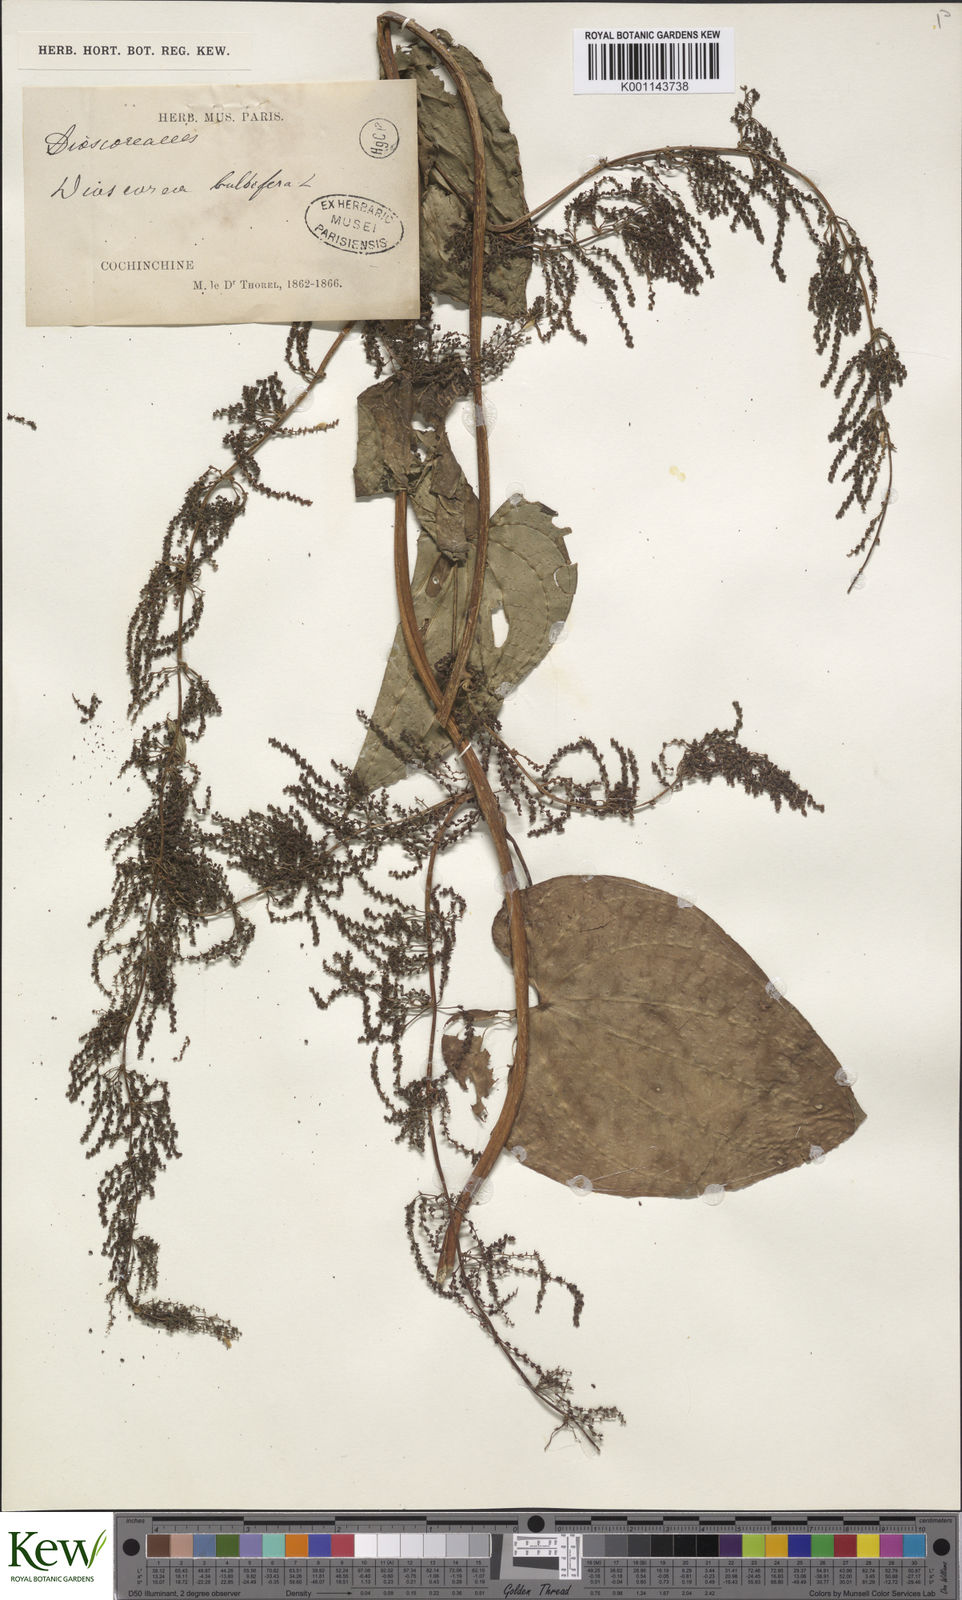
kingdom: Plantae
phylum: Tracheophyta
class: Liliopsida
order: Dioscoreales
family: Dioscoreaceae
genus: Dioscorea
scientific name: Dioscorea bulbifera
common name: Air yam
